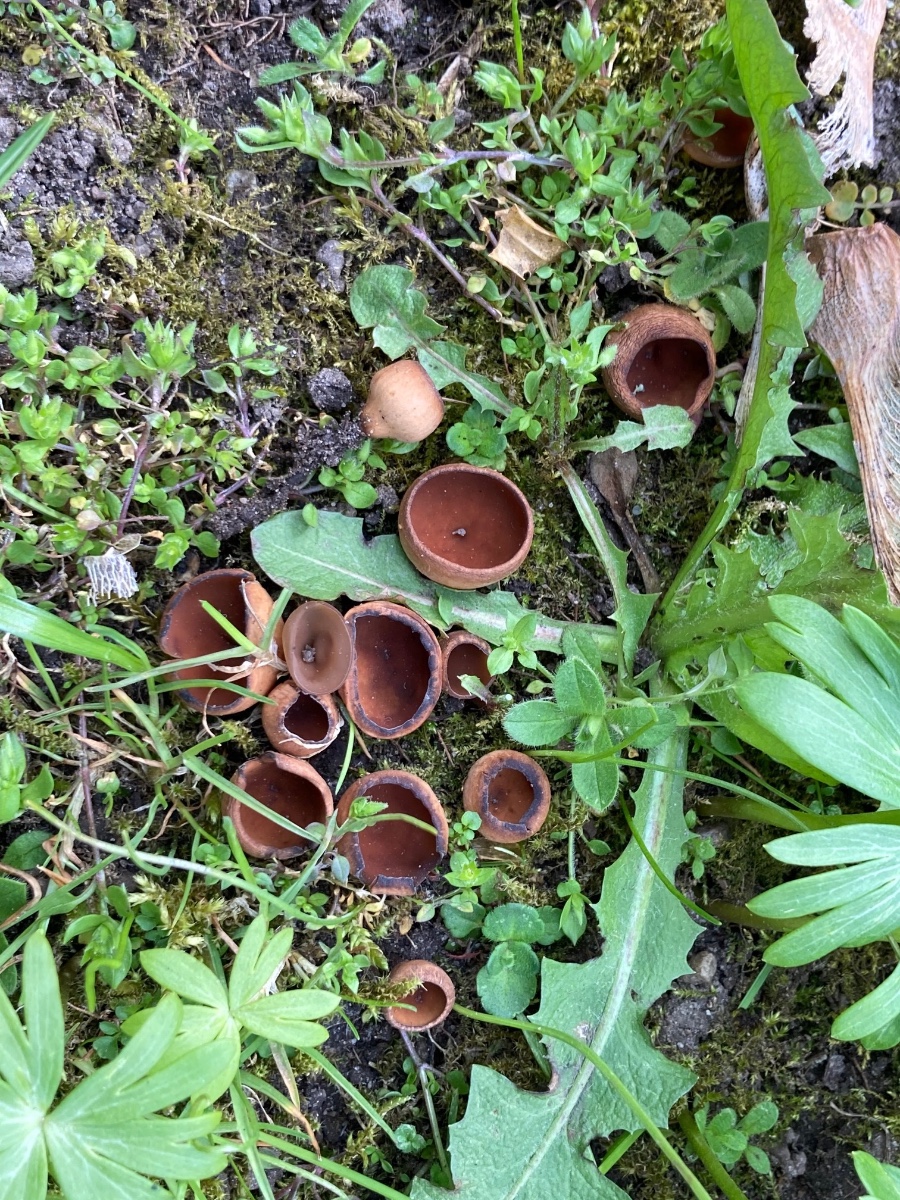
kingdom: Fungi
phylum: Ascomycota
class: Leotiomycetes
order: Helotiales
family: Sclerotiniaceae
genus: Dumontinia
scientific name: Dumontinia tuberosa
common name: anemone-knoldskive
